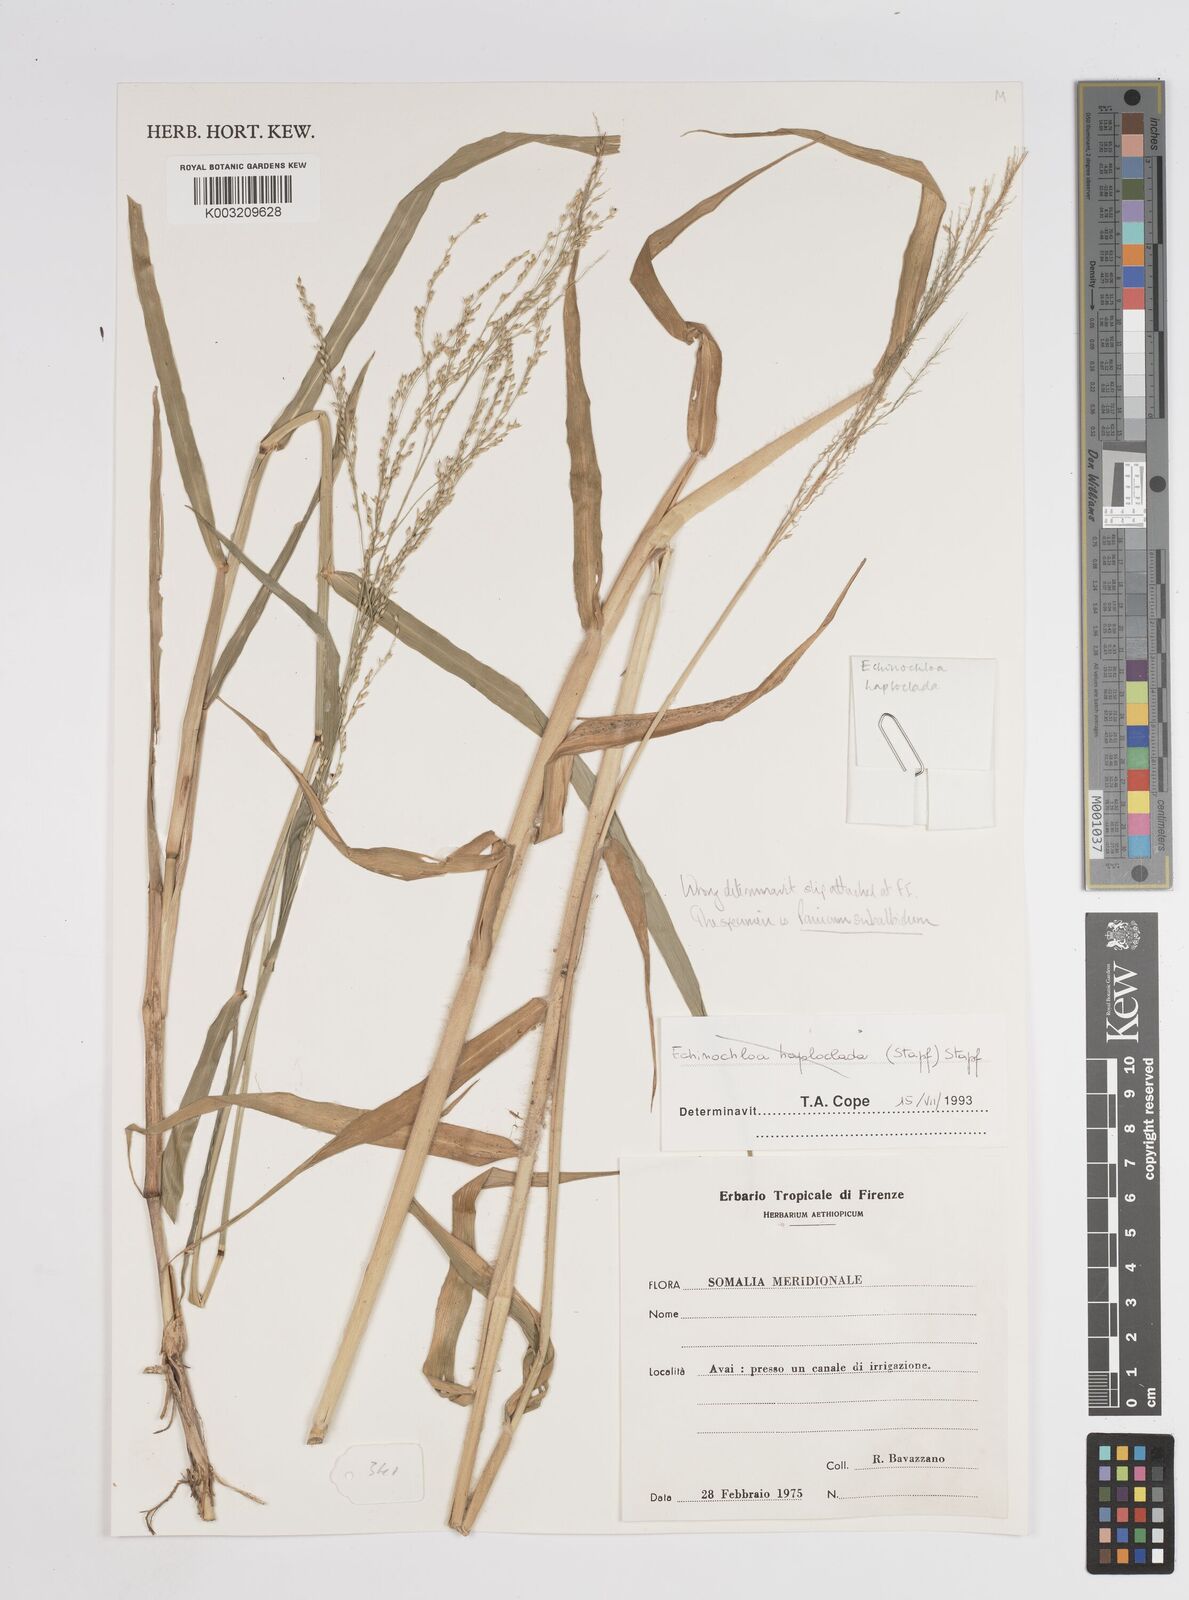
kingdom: Plantae
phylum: Tracheophyta
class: Liliopsida
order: Poales
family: Poaceae
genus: Panicum
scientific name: Panicum subalbidum
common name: Elbow buffalo grass
